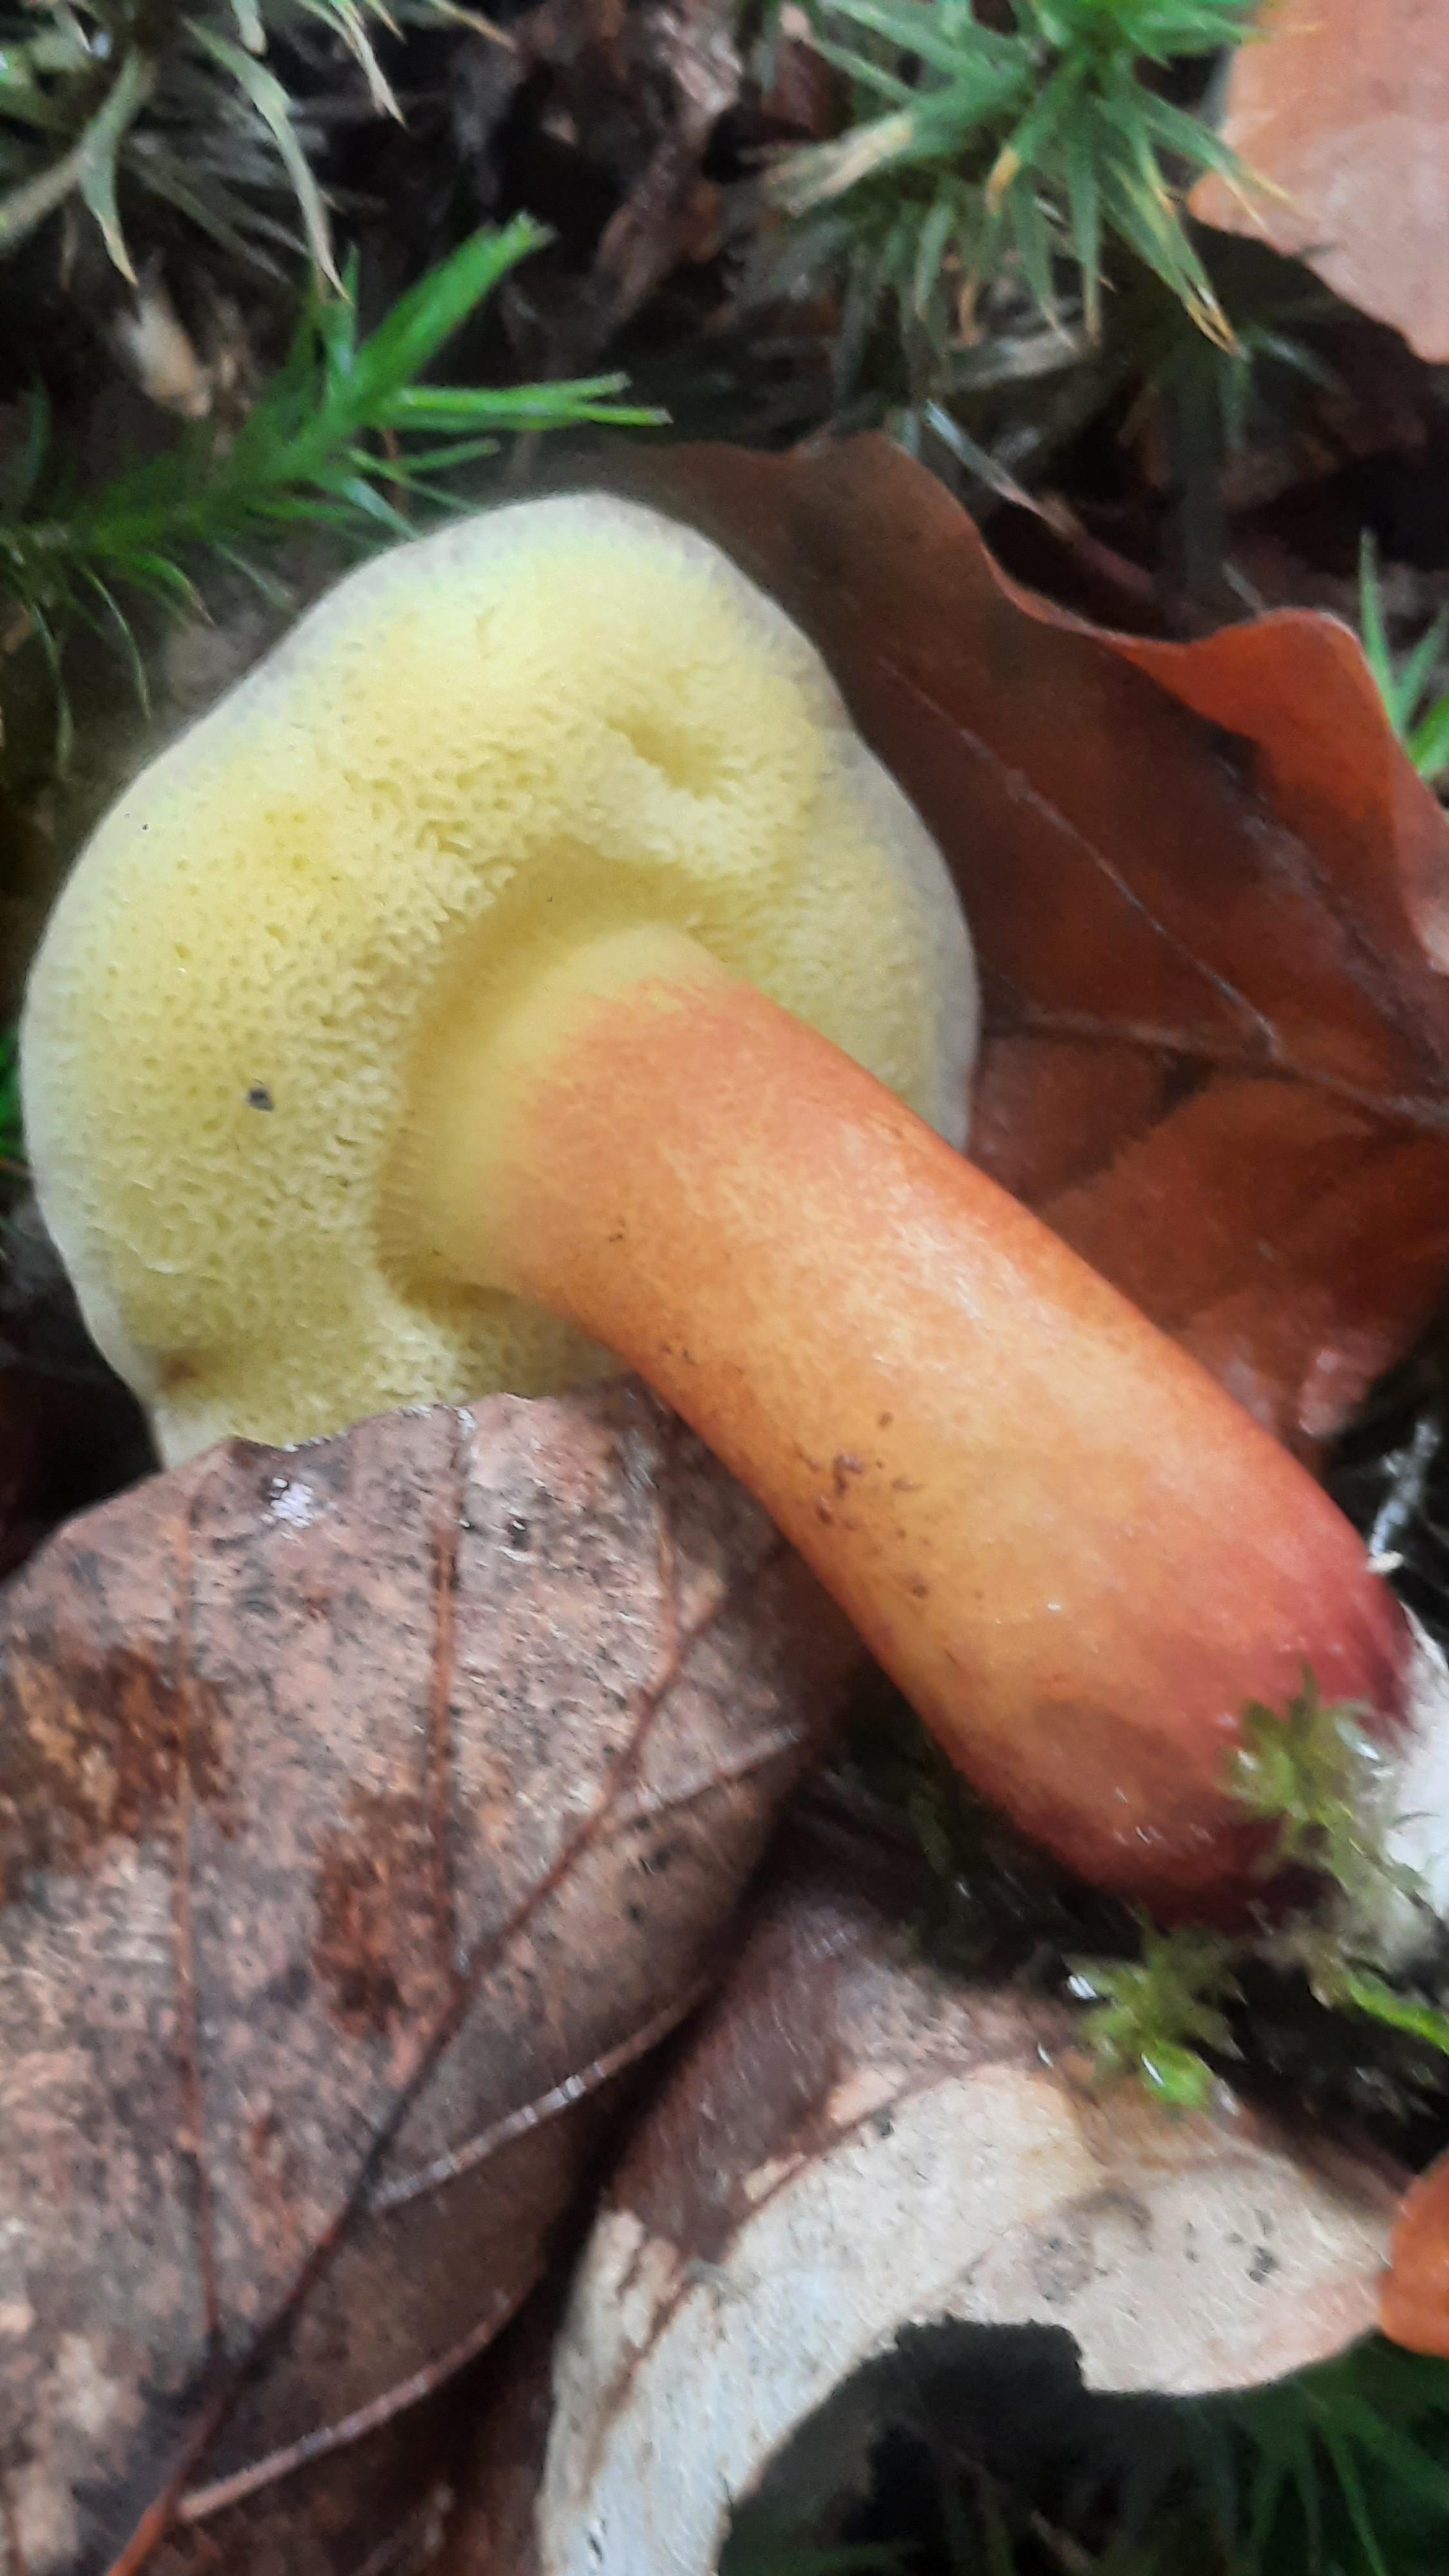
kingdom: Fungi
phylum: Basidiomycota
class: Agaricomycetes
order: Boletales
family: Boletaceae
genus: Xerocomellus
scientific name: Xerocomellus pruinatus
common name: dugget rørhat
